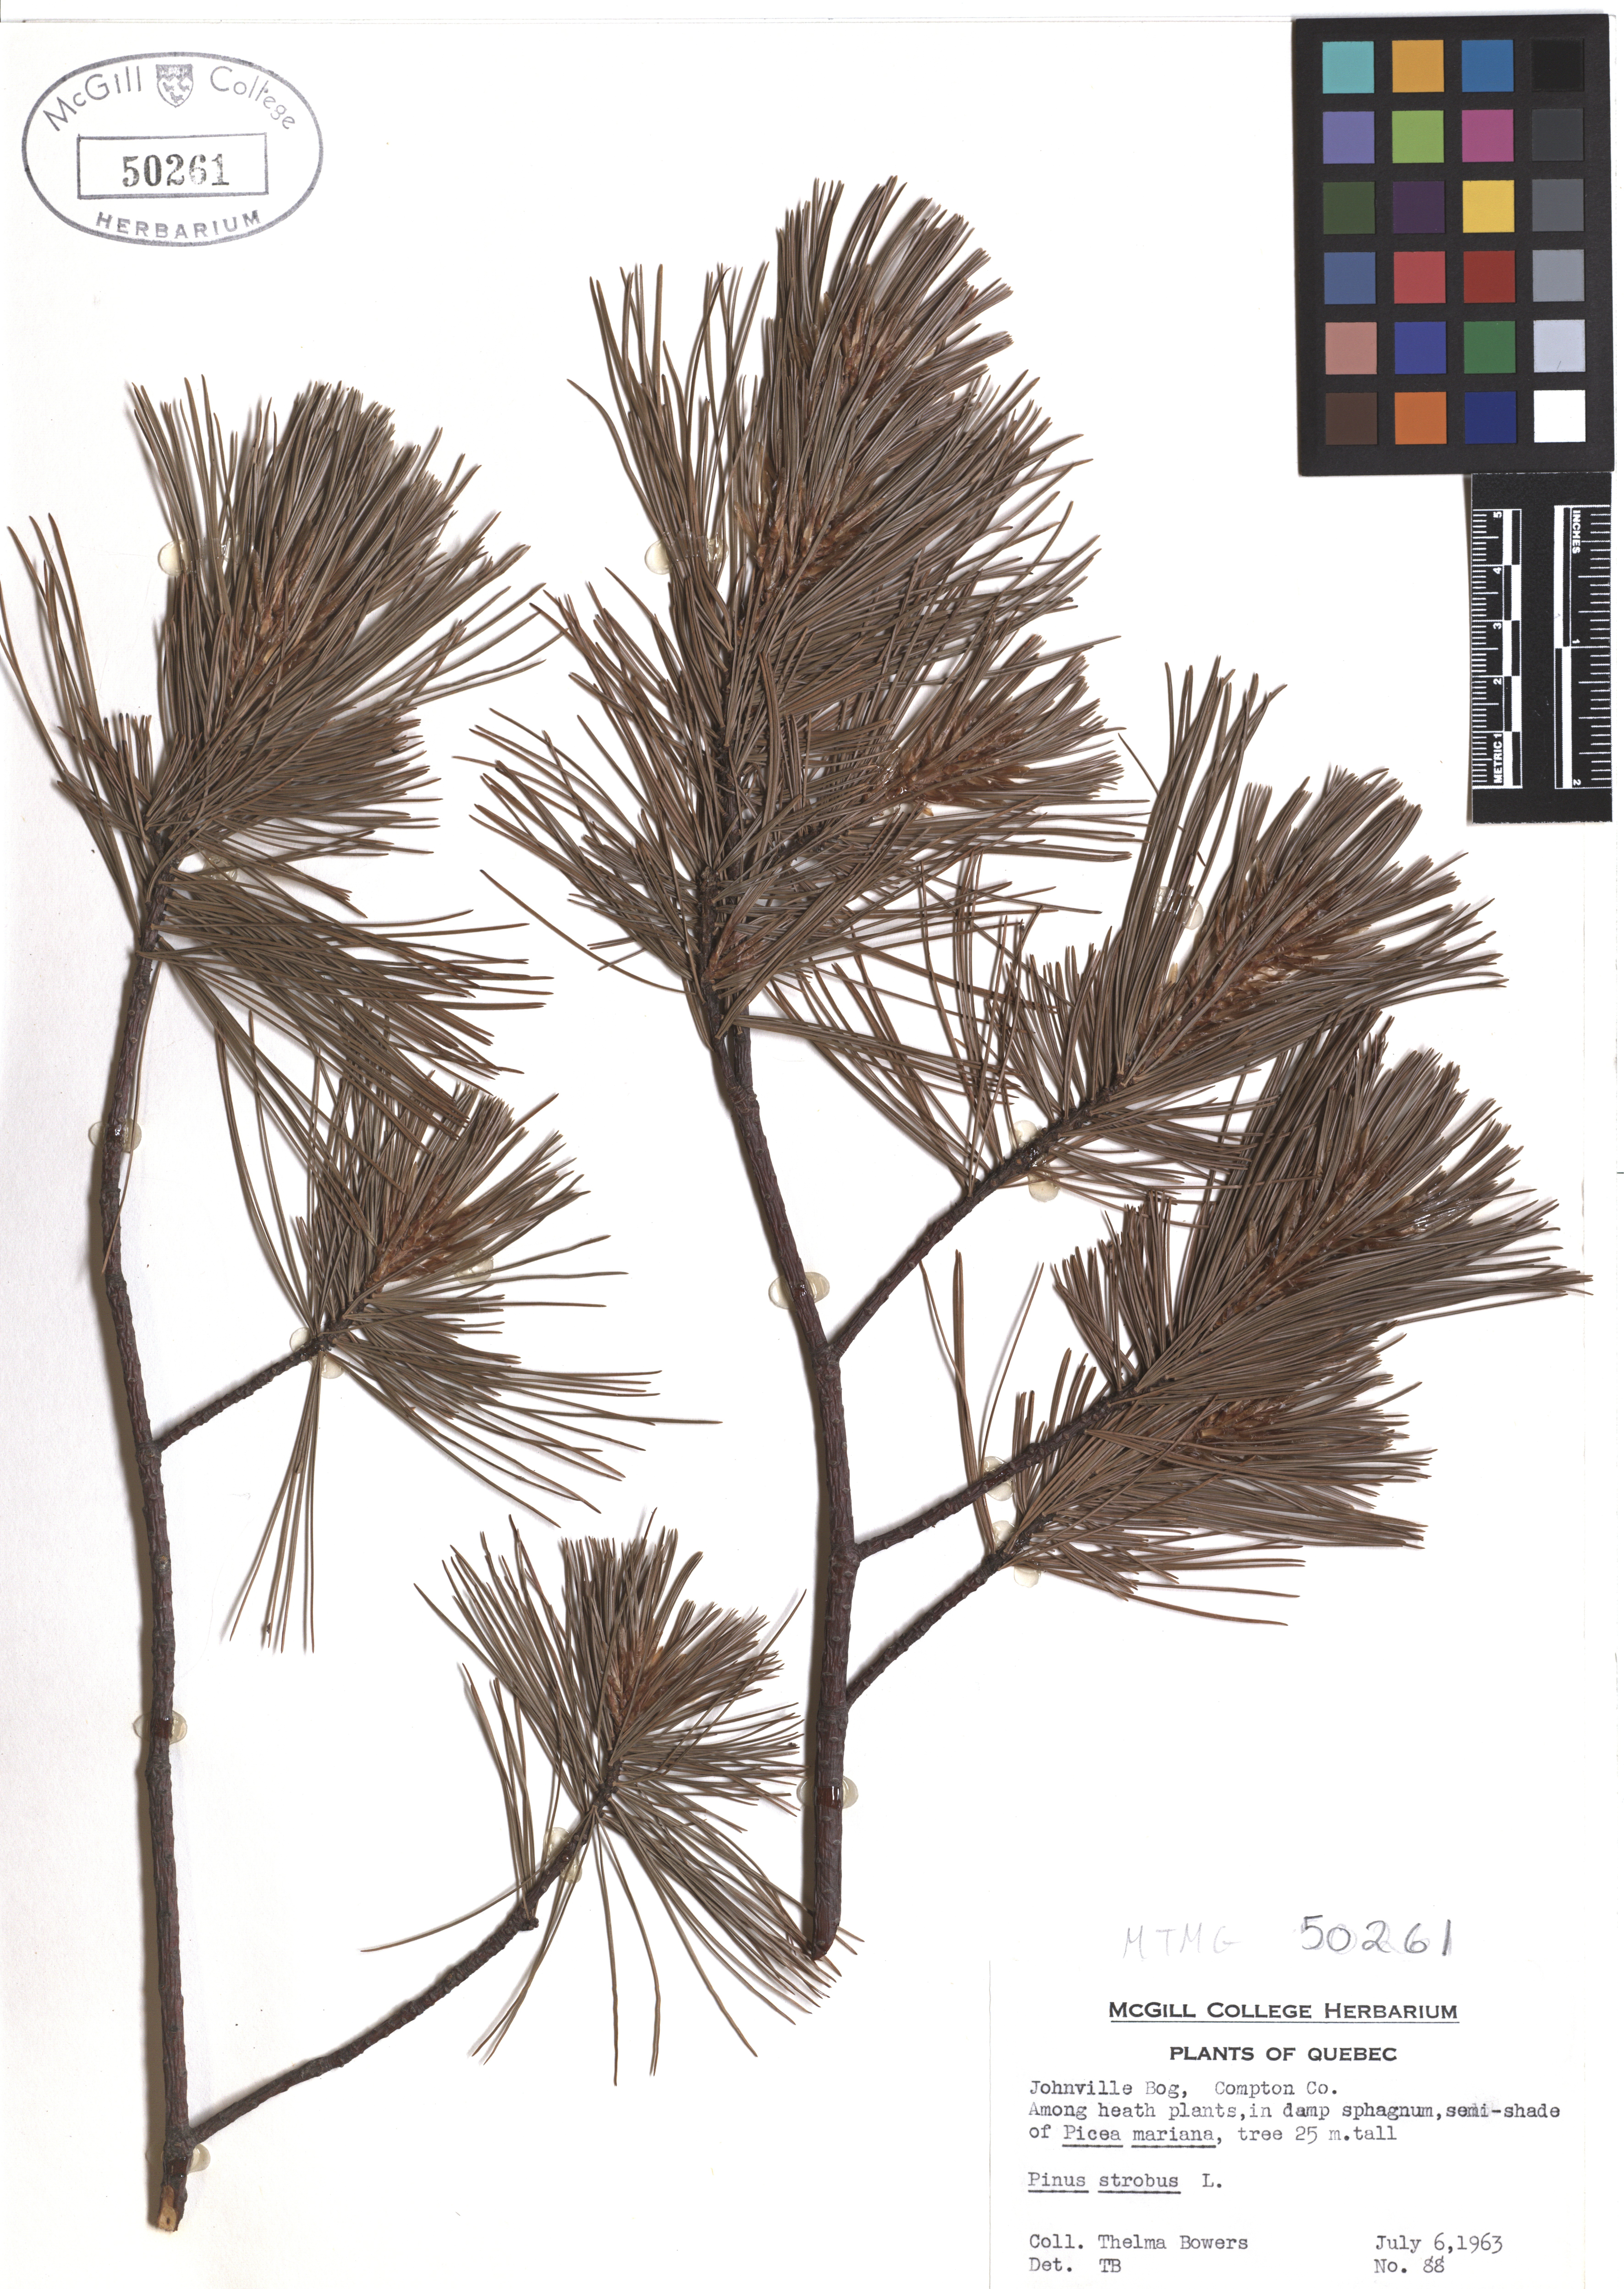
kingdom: Plantae
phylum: Tracheophyta
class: Pinopsida
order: Pinales
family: Pinaceae
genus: Pinus
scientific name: Pinus strobus
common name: Weymouth pine
